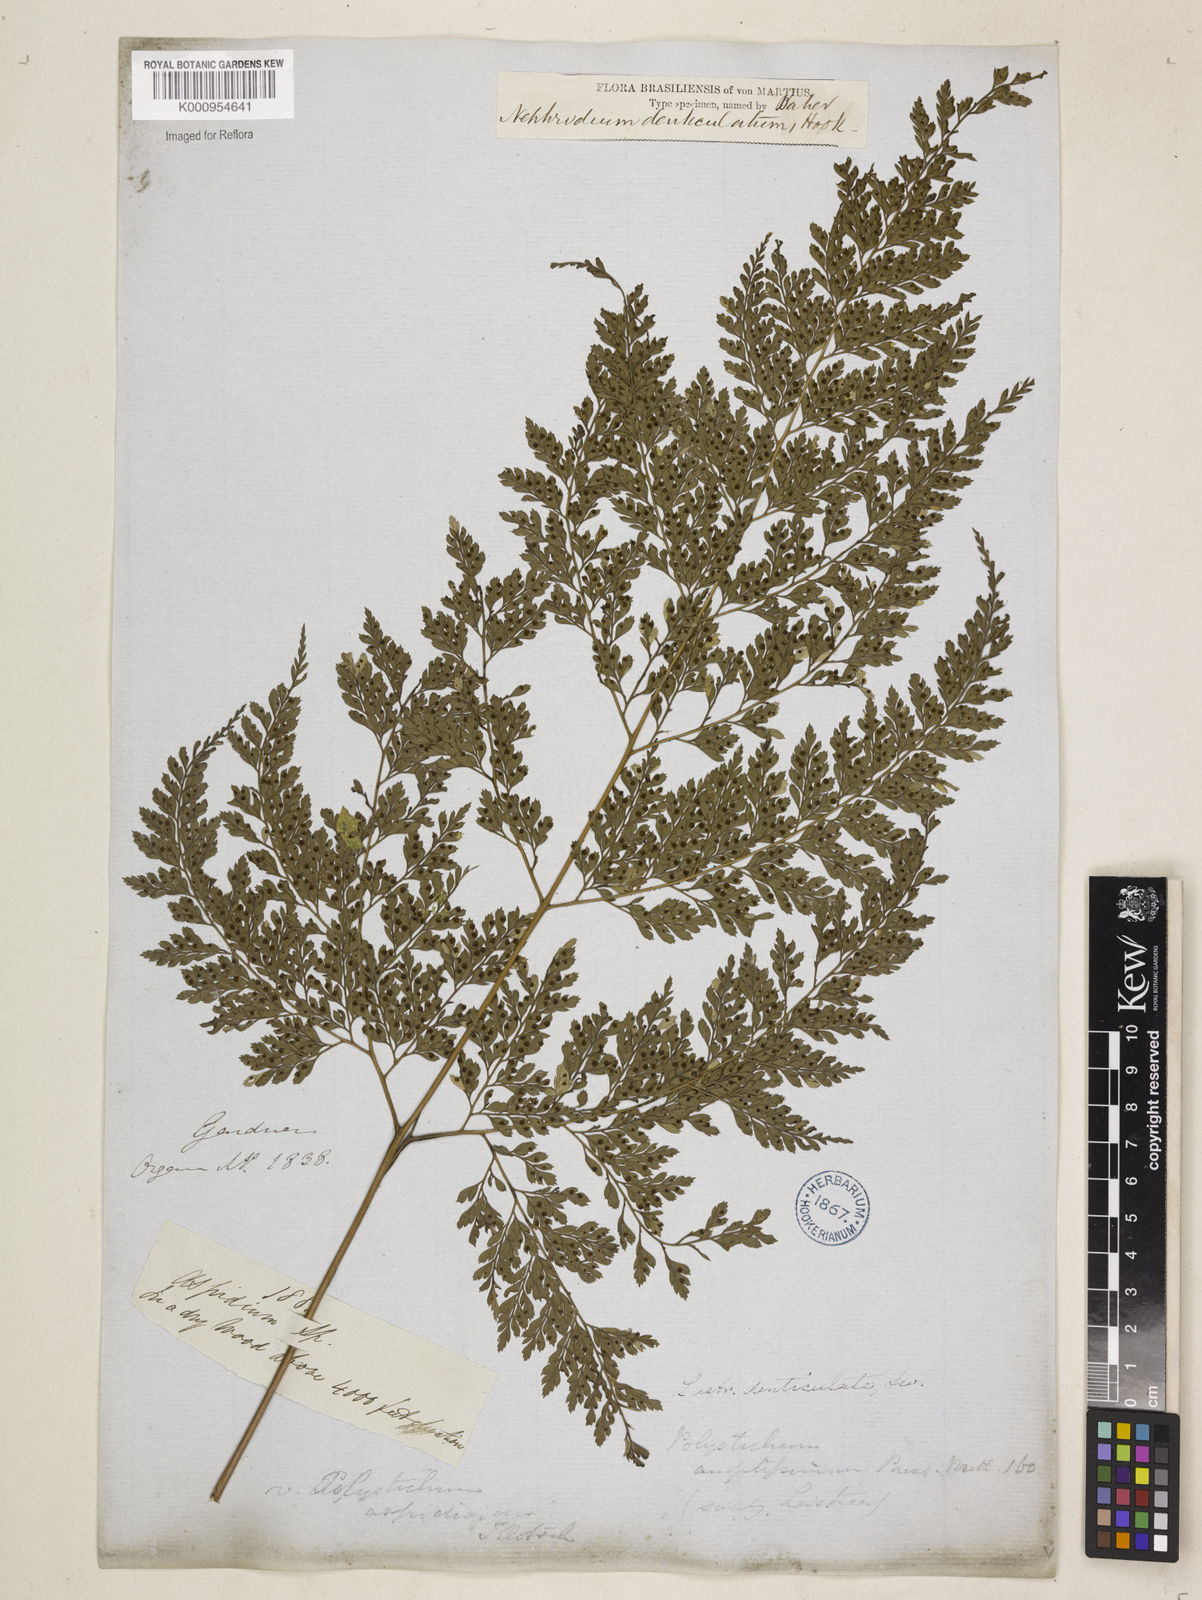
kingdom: Plantae
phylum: Tracheophyta
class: Polypodiopsida
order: Polypodiales
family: Dryopteridaceae
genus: Arachniodes
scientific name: Arachniodes denticulata
